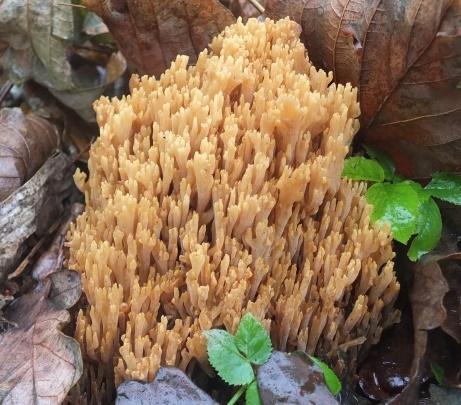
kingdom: Fungi
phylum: Basidiomycota
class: Agaricomycetes
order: Gomphales
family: Gomphaceae
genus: Phaeoclavulina
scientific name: Phaeoclavulina decurrens
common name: krat-koralsvamp
